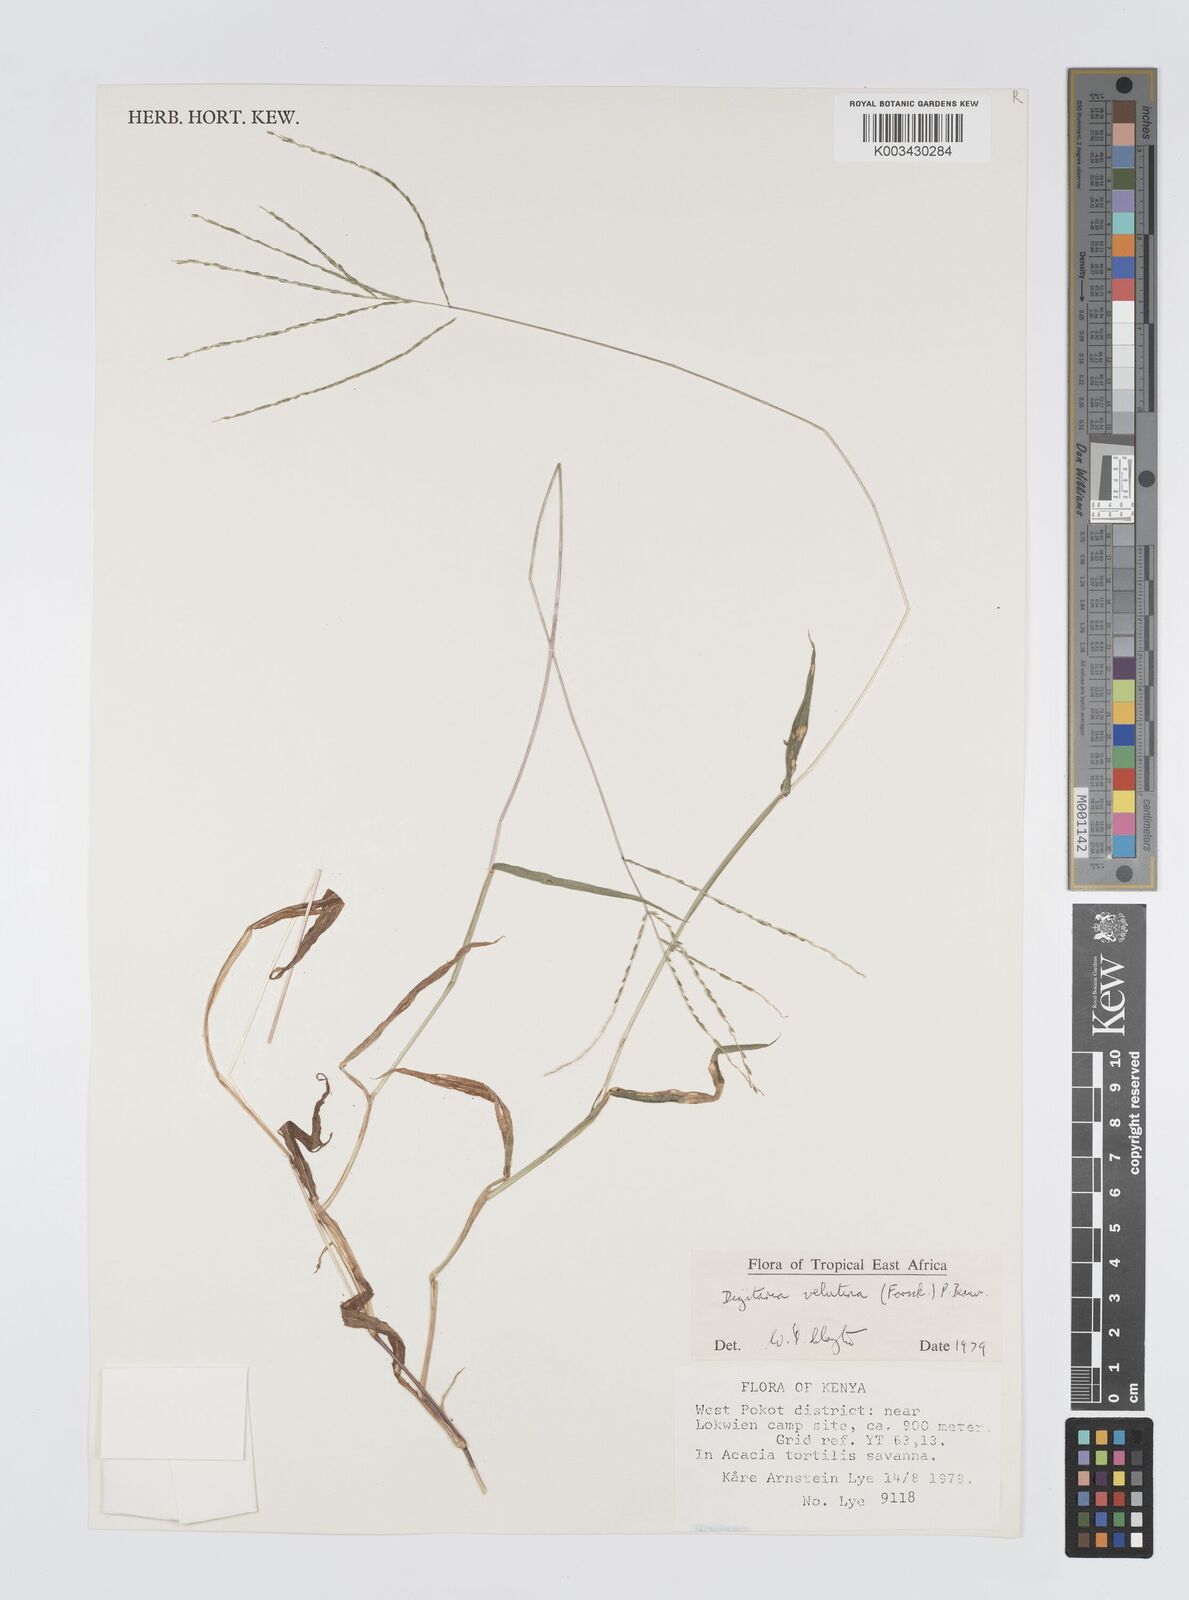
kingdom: Plantae
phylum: Tracheophyta
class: Liliopsida
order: Poales
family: Poaceae
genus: Digitaria
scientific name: Digitaria velutina
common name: Long-plume finger grass
